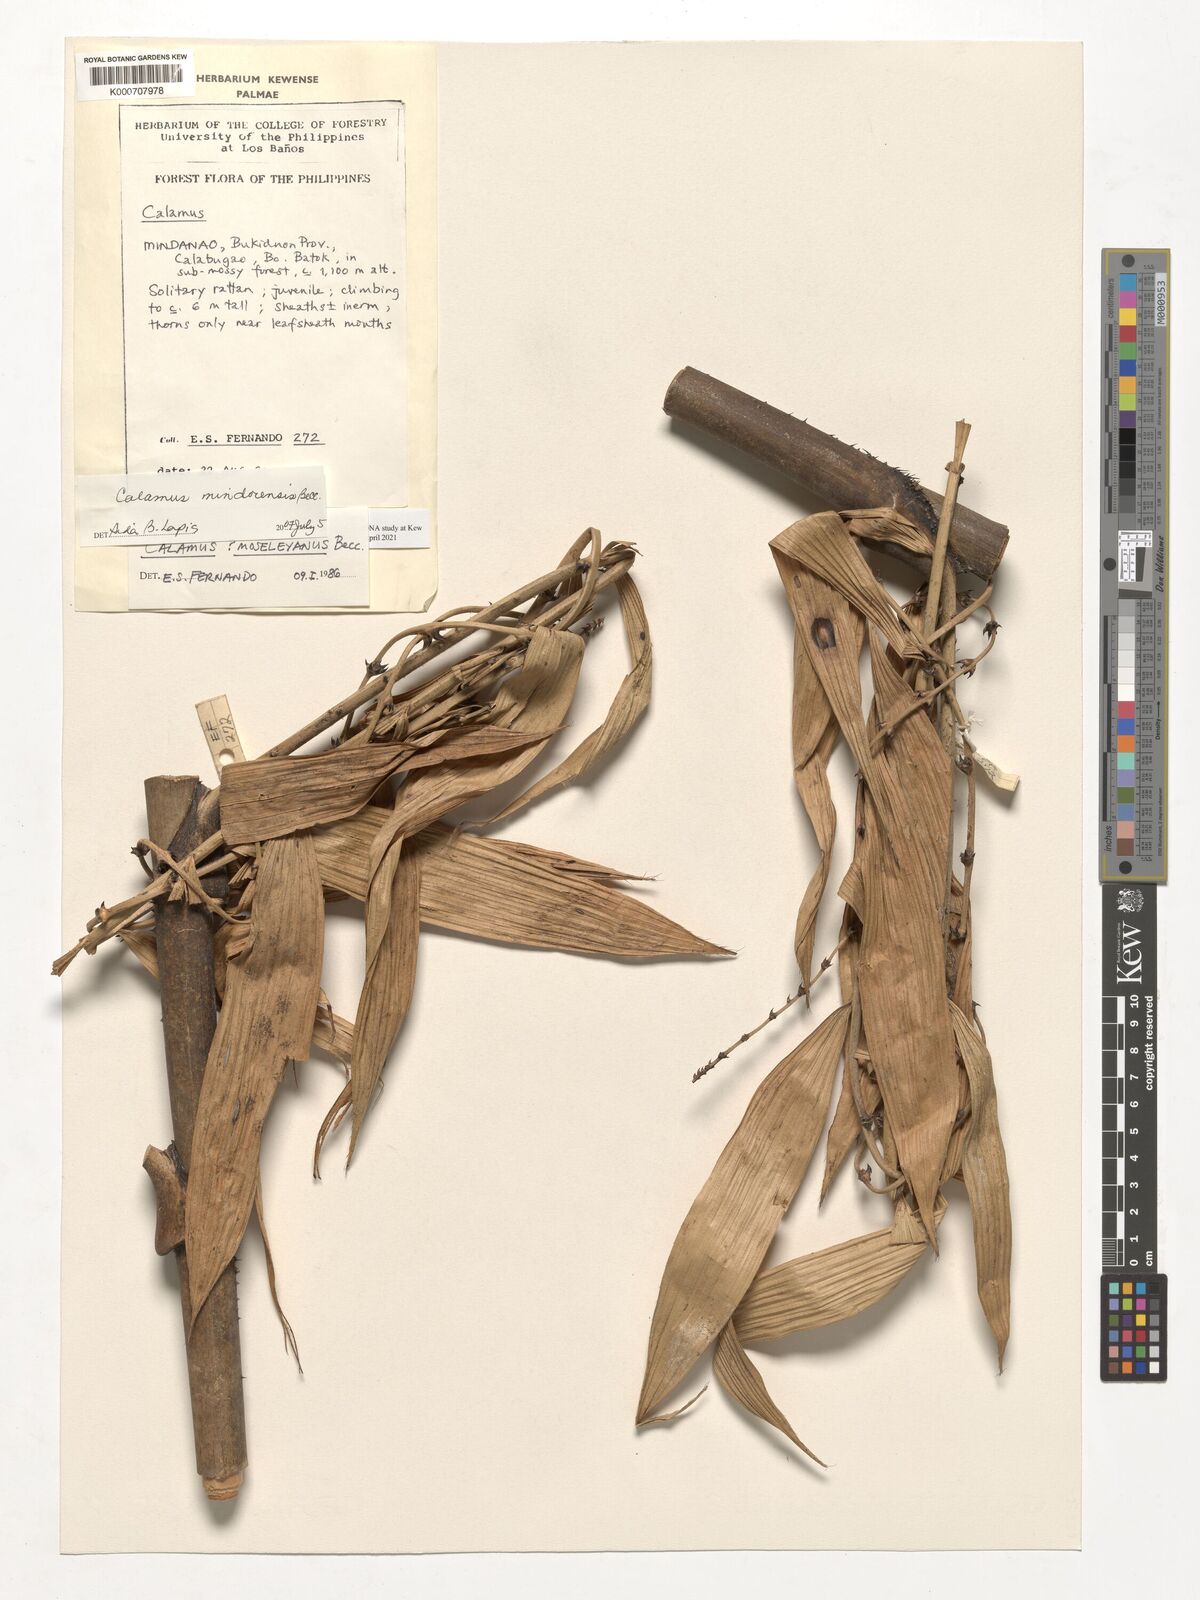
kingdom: Plantae
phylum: Tracheophyta
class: Liliopsida
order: Arecales
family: Arecaceae
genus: Calamus
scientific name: Calamus moseleyanus
